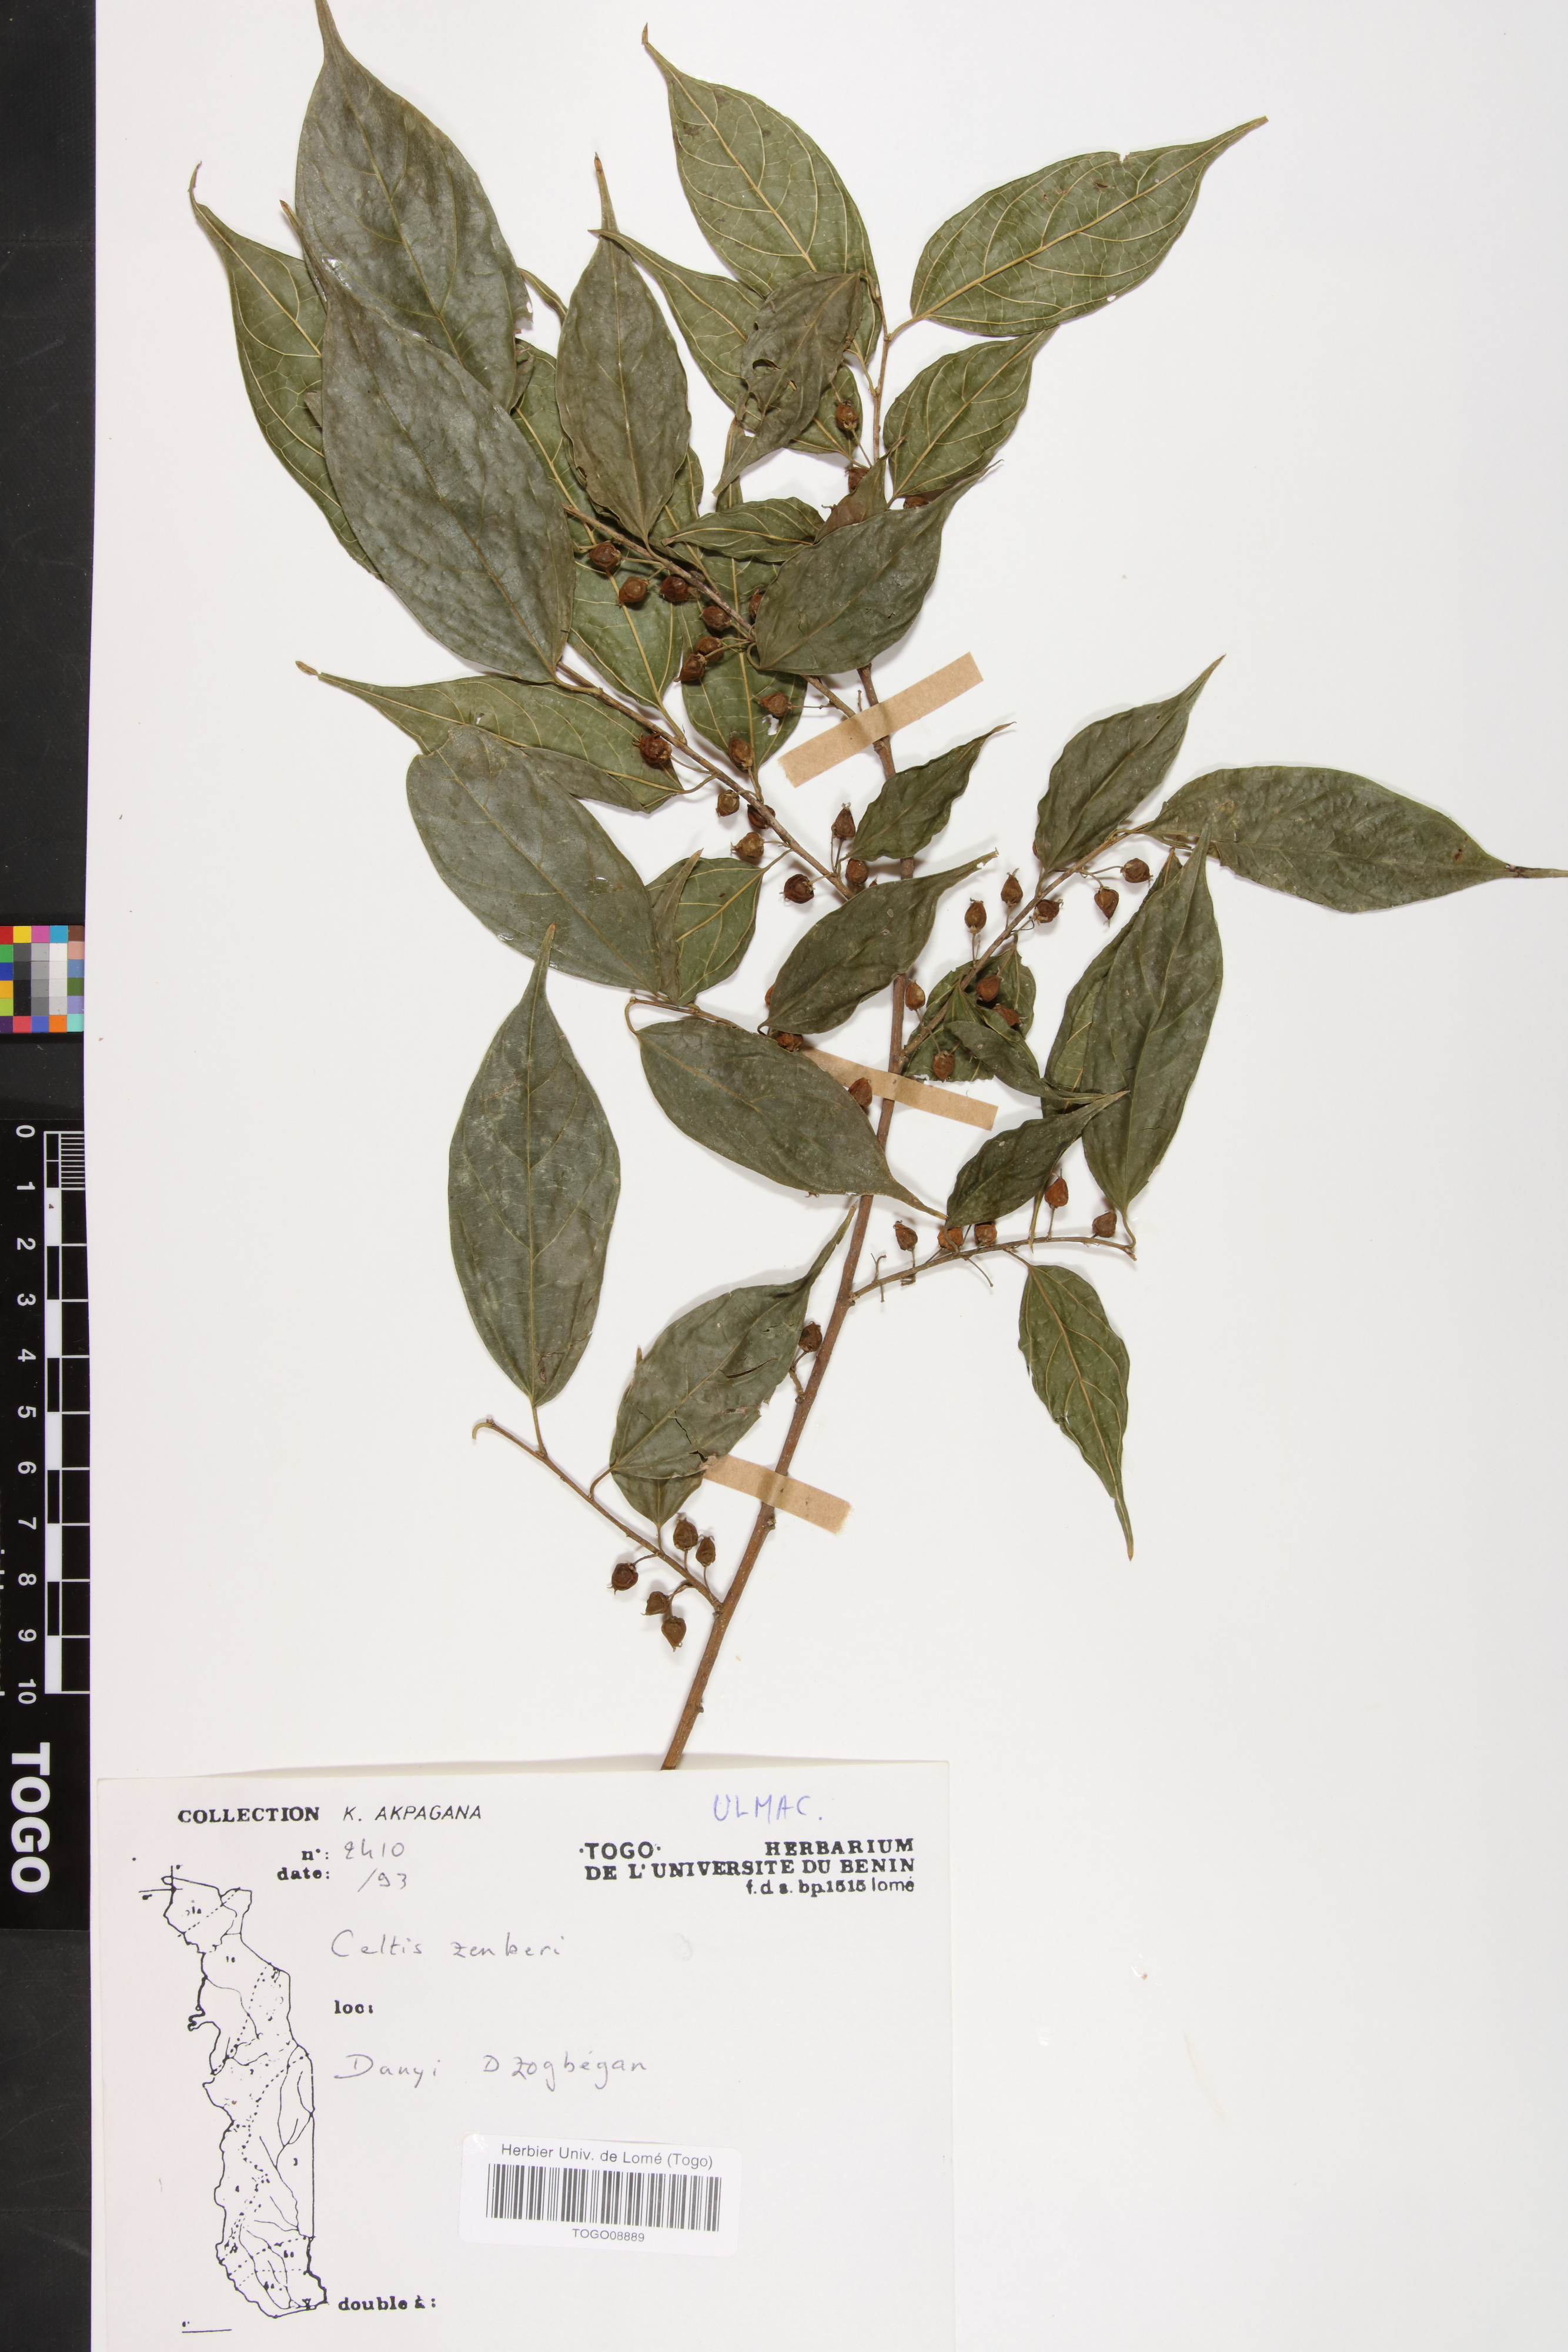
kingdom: Plantae
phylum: Tracheophyta
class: Magnoliopsida
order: Rosales
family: Cannabaceae
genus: Celtis
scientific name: Celtis zenkeri
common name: African celtis
